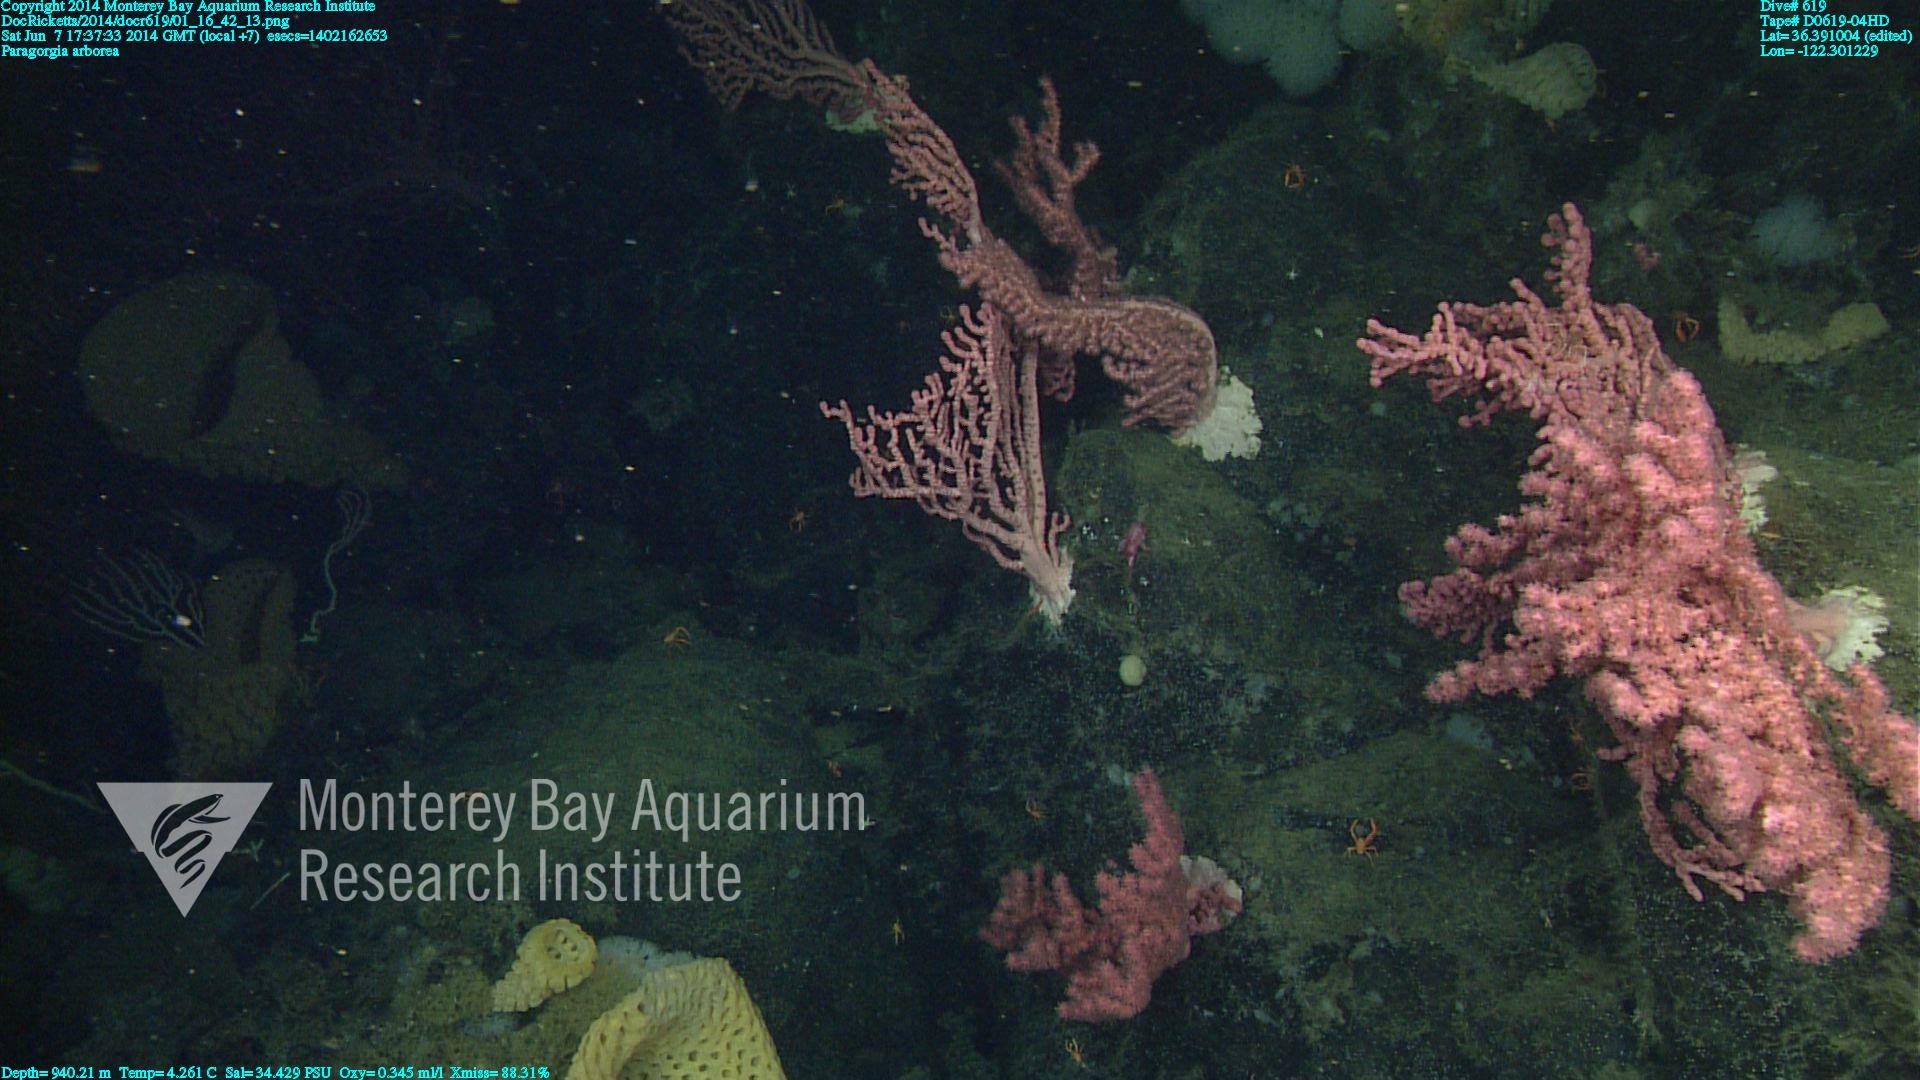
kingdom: Animalia
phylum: Cnidaria
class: Anthozoa
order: Scleralcyonacea
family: Coralliidae
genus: Paragorgia
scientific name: Paragorgia arborea
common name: Bubble gum coral
